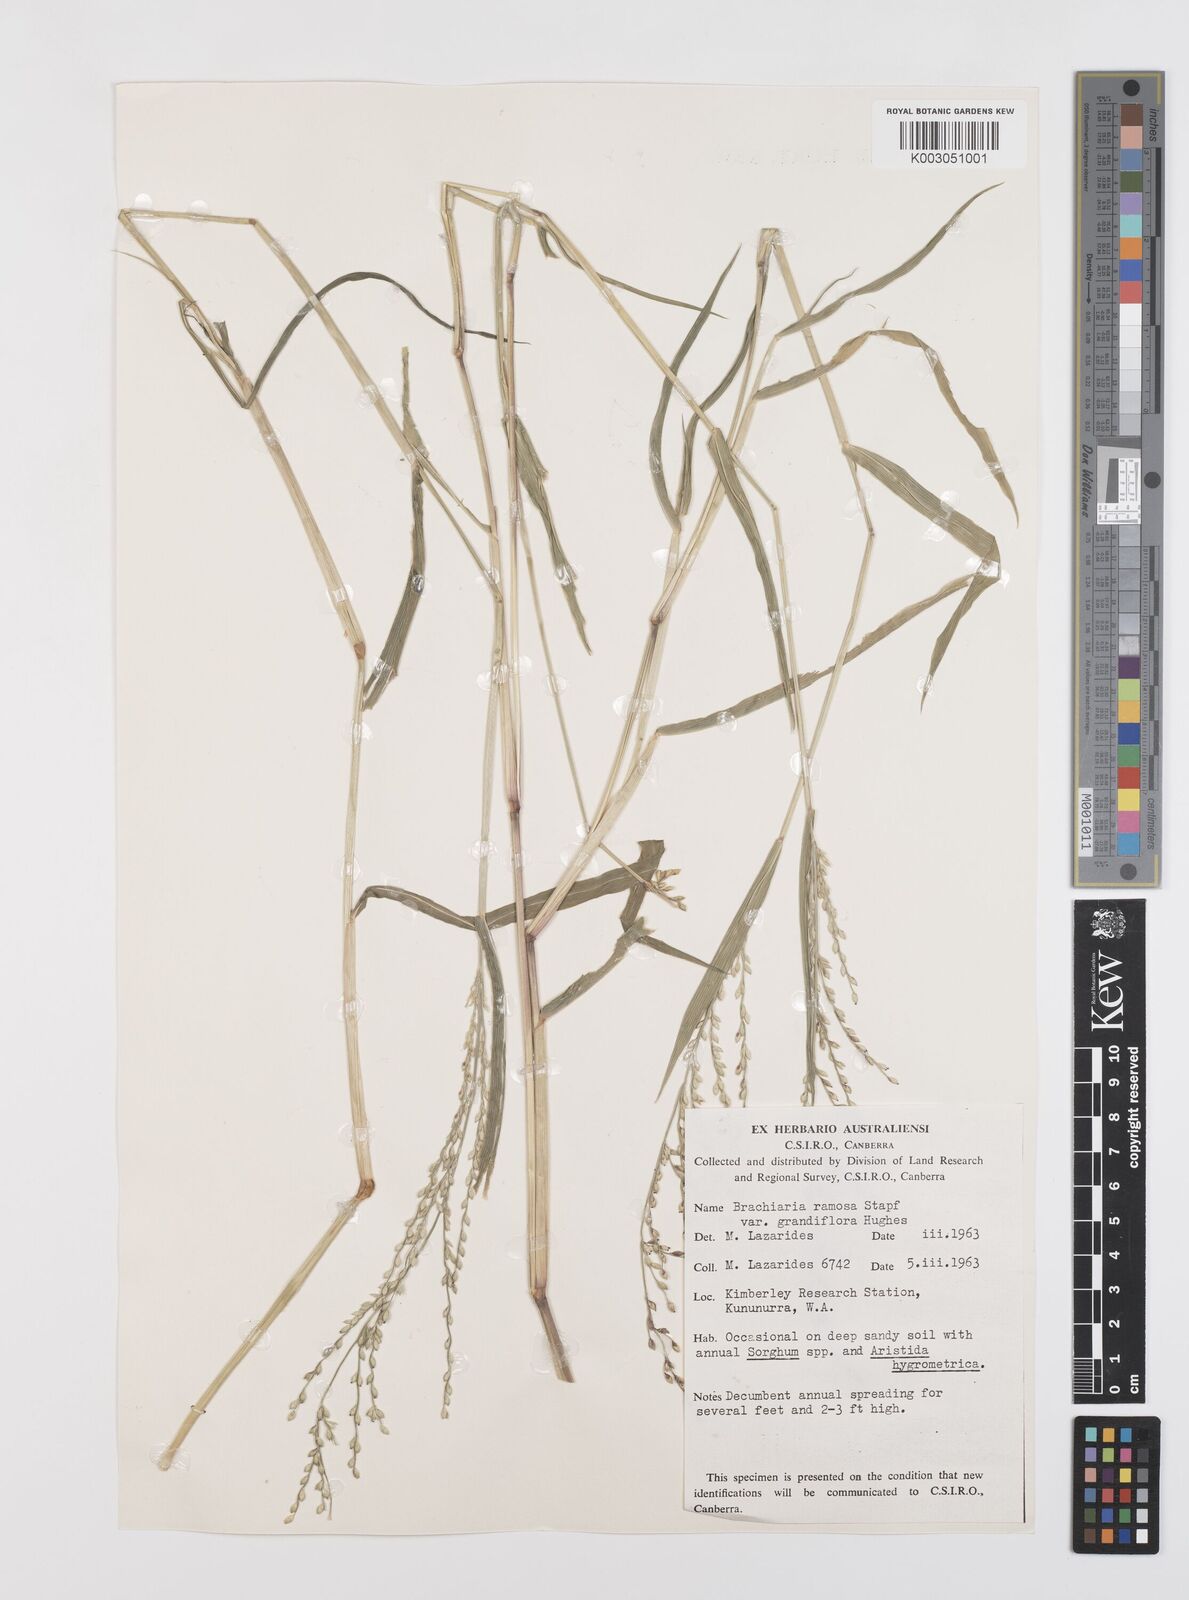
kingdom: Plantae
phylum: Tracheophyta
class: Liliopsida
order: Poales
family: Poaceae
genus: Urochloa
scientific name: Urochloa pubigera
